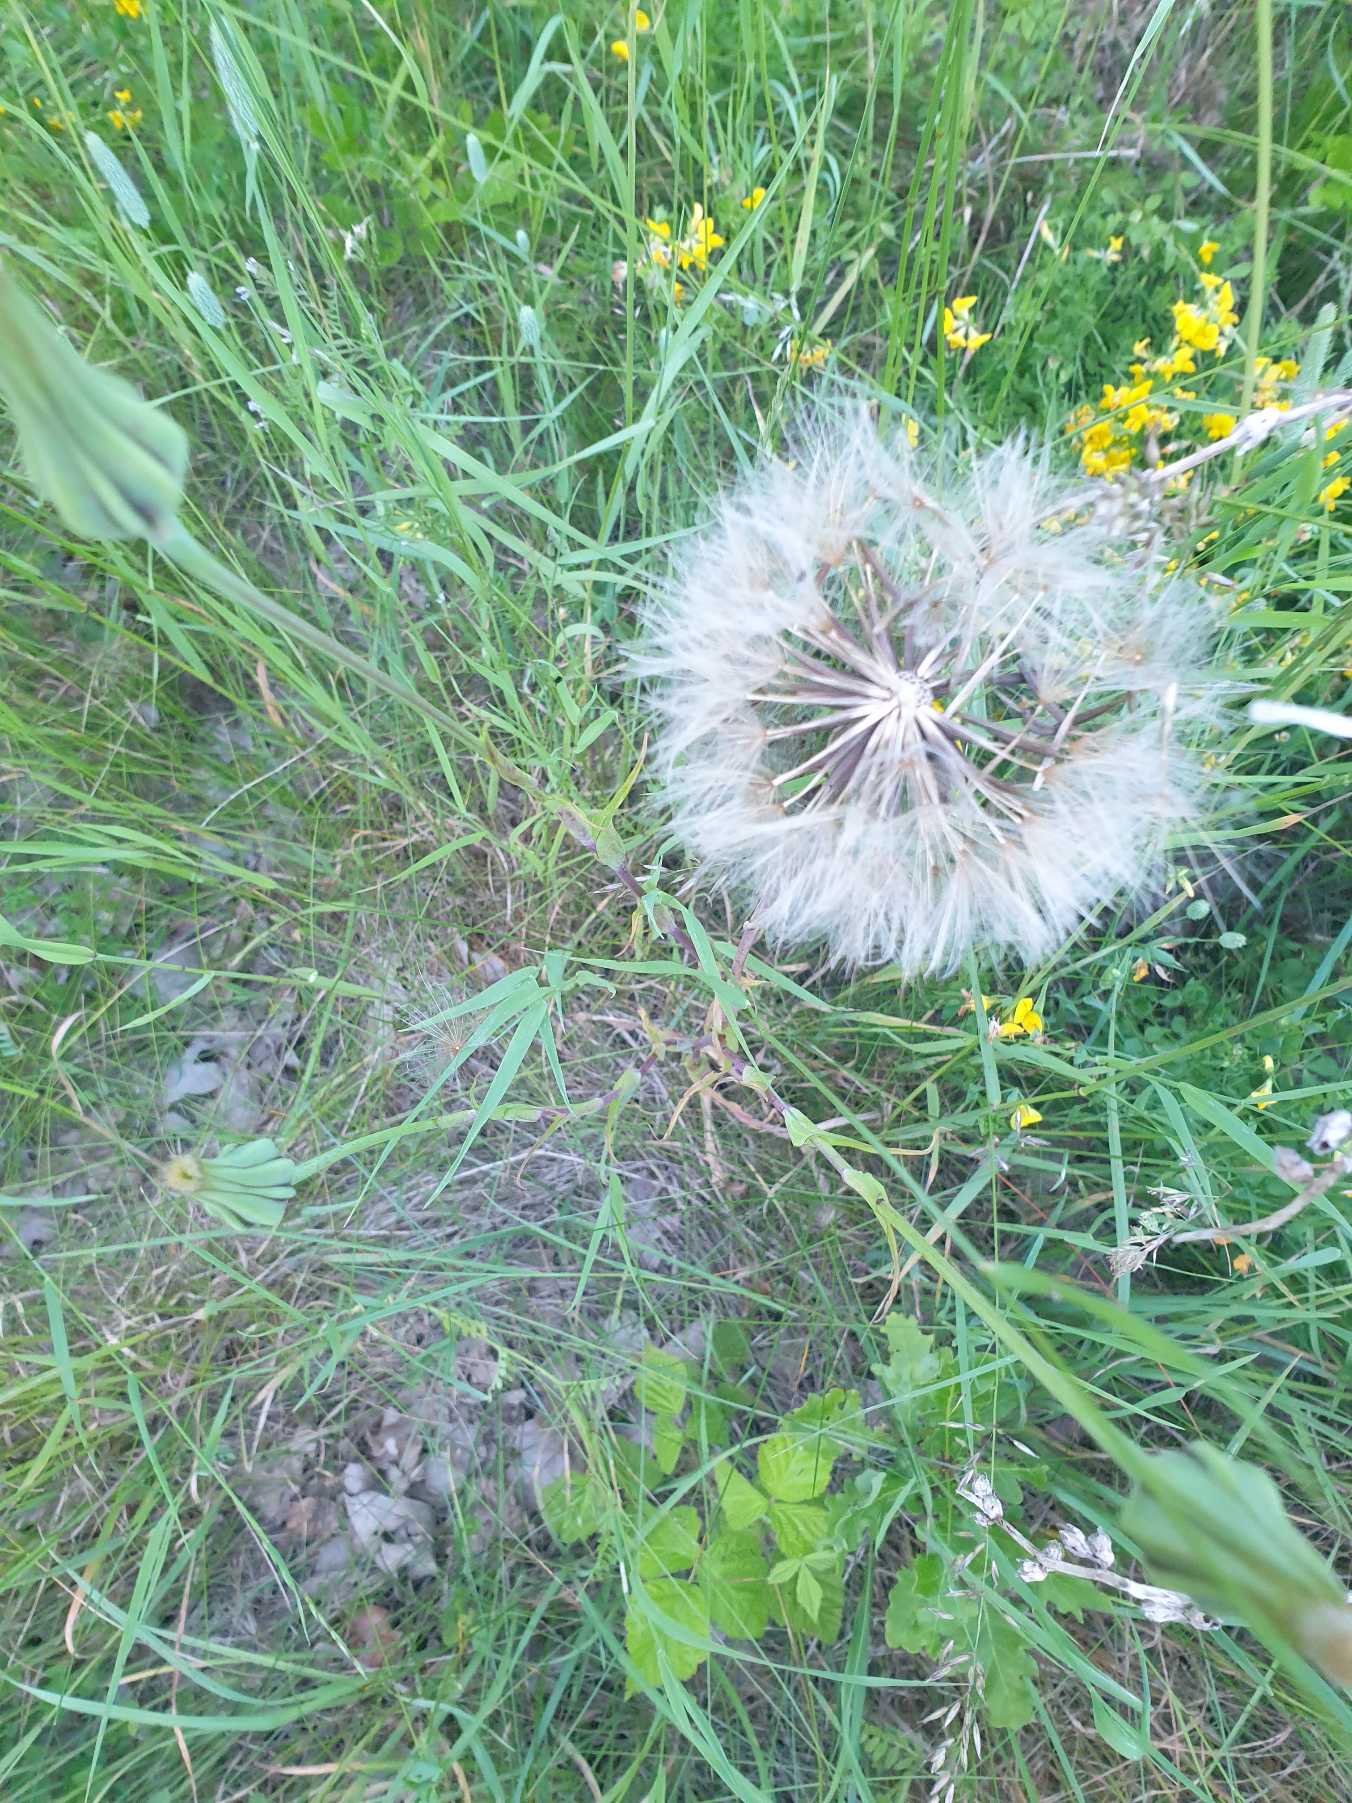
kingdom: Plantae
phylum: Tracheophyta
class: Magnoliopsida
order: Asterales
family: Asteraceae
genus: Tragopogon
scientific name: Tragopogon pratensis
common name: Gedeskæg
